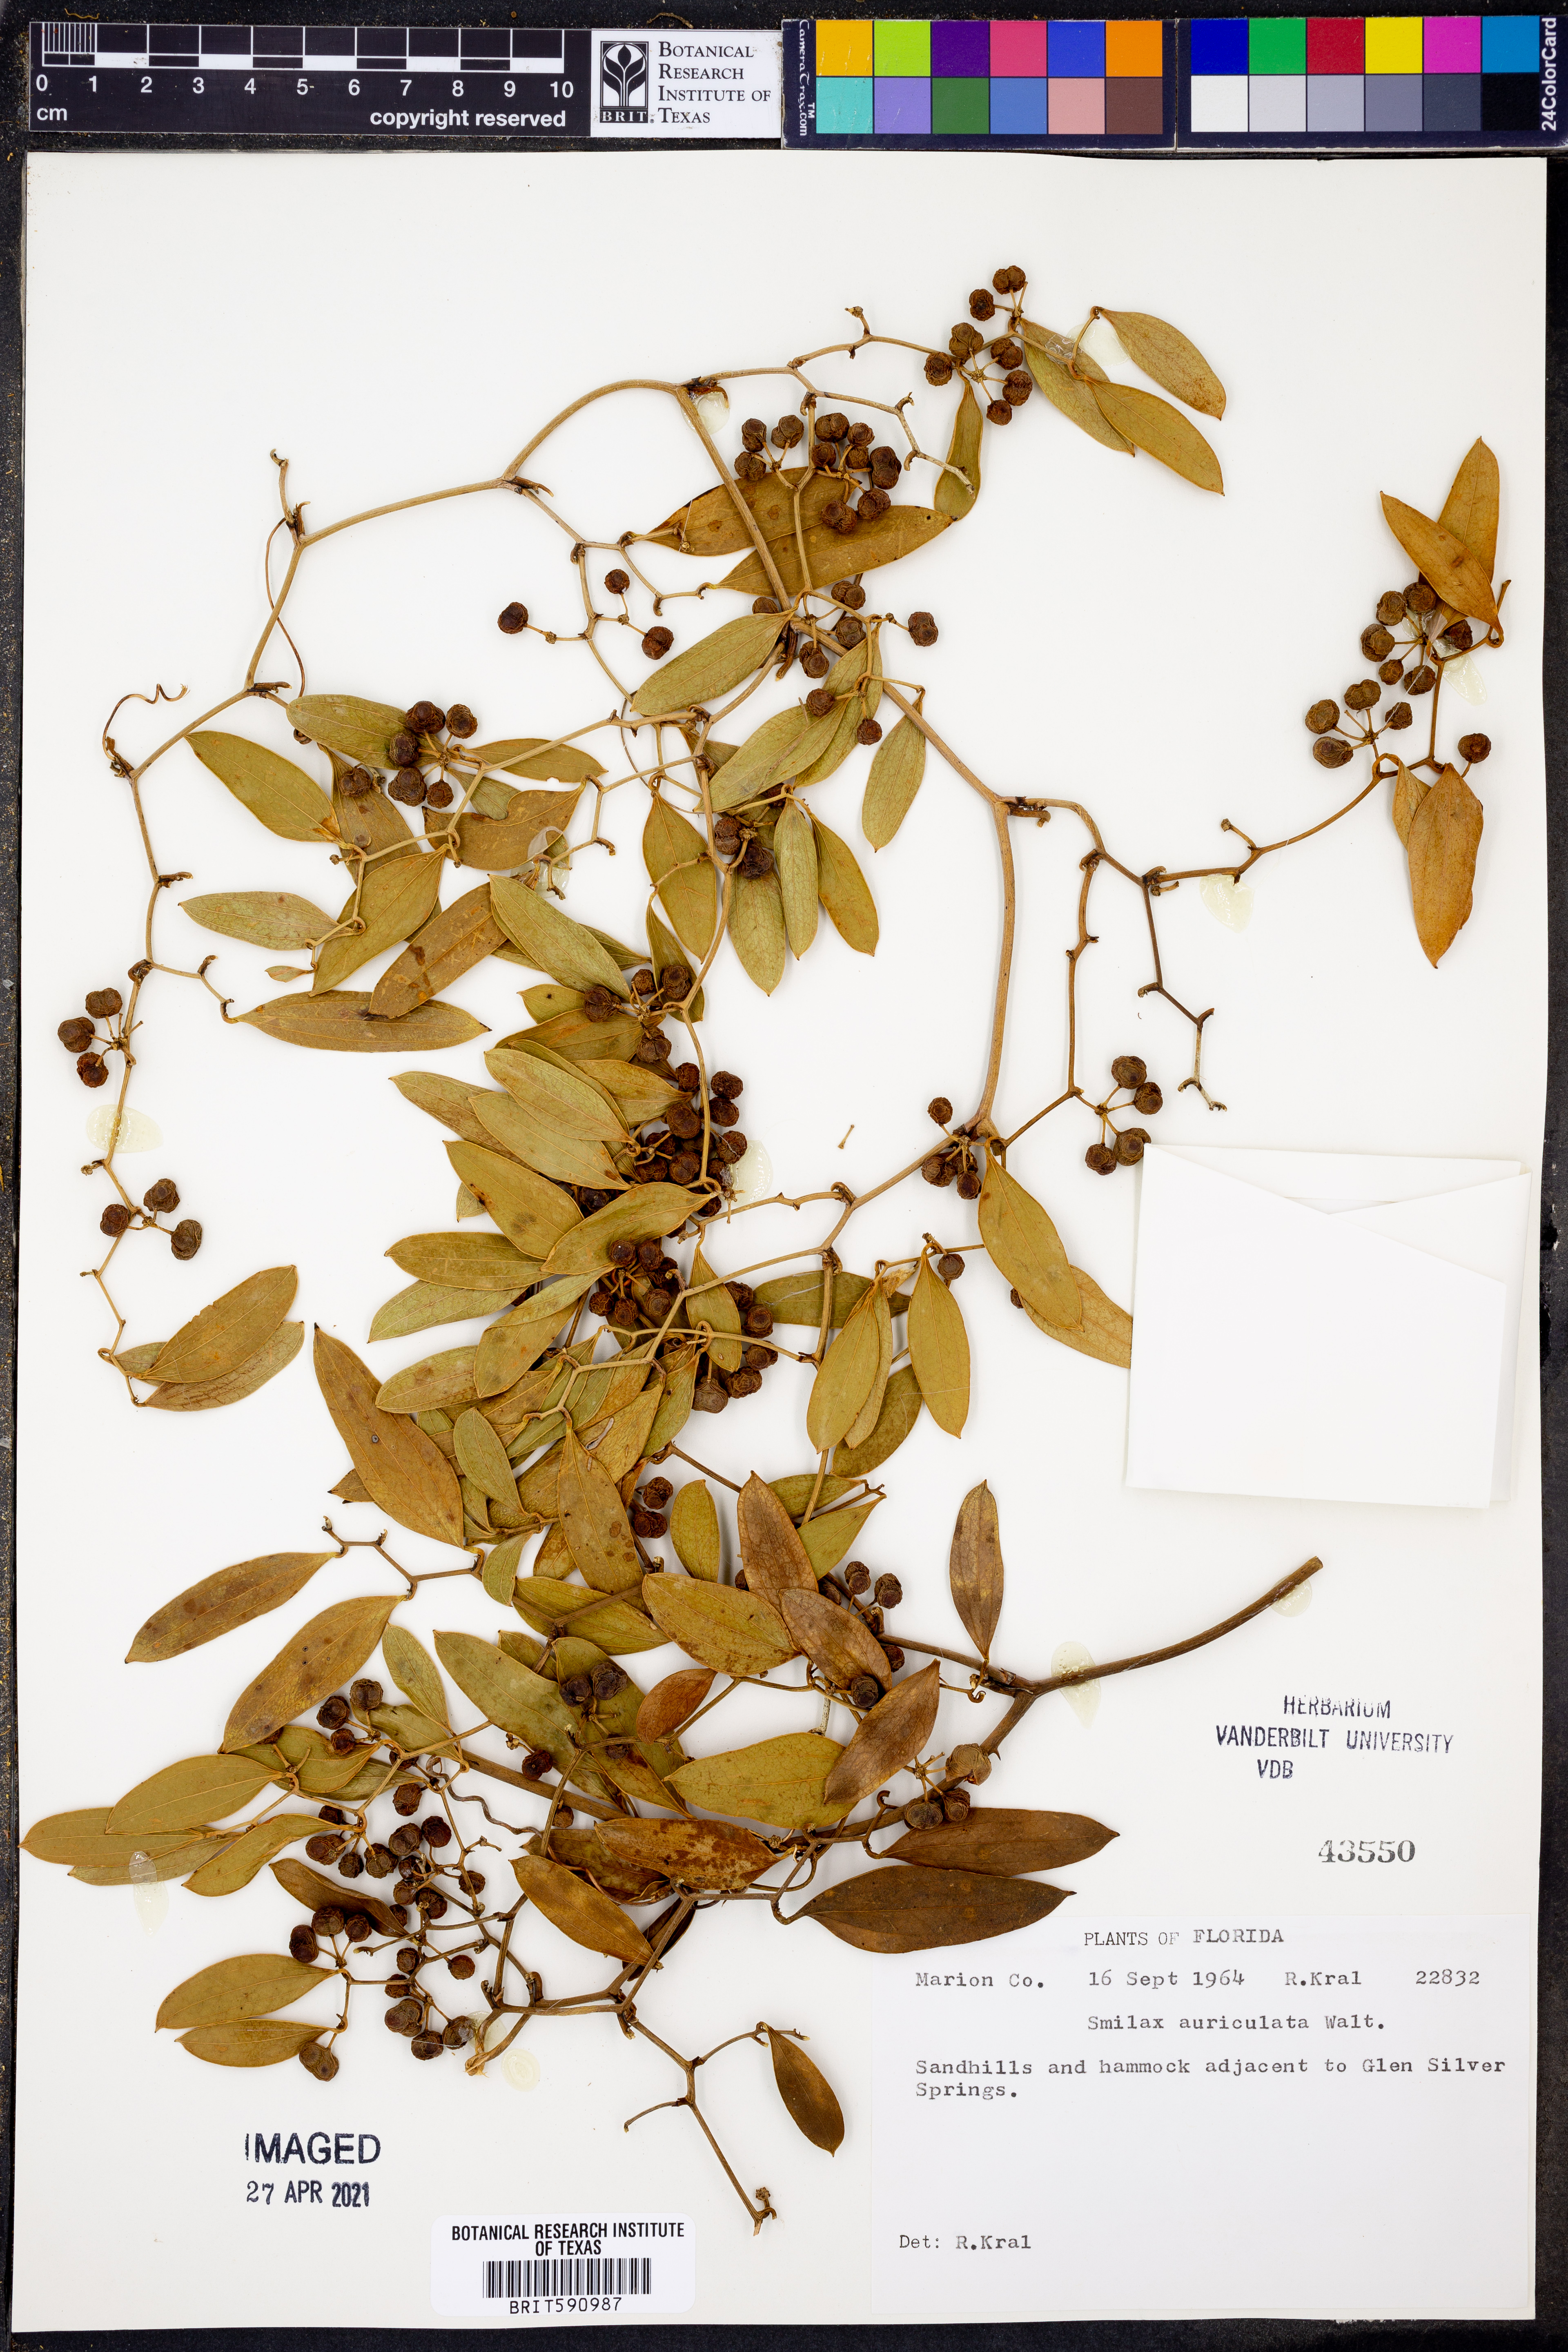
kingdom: Plantae
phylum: Tracheophyta
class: Liliopsida
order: Liliales
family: Smilacaceae
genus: Smilax
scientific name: Smilax auriculata
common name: Wild bamboo
